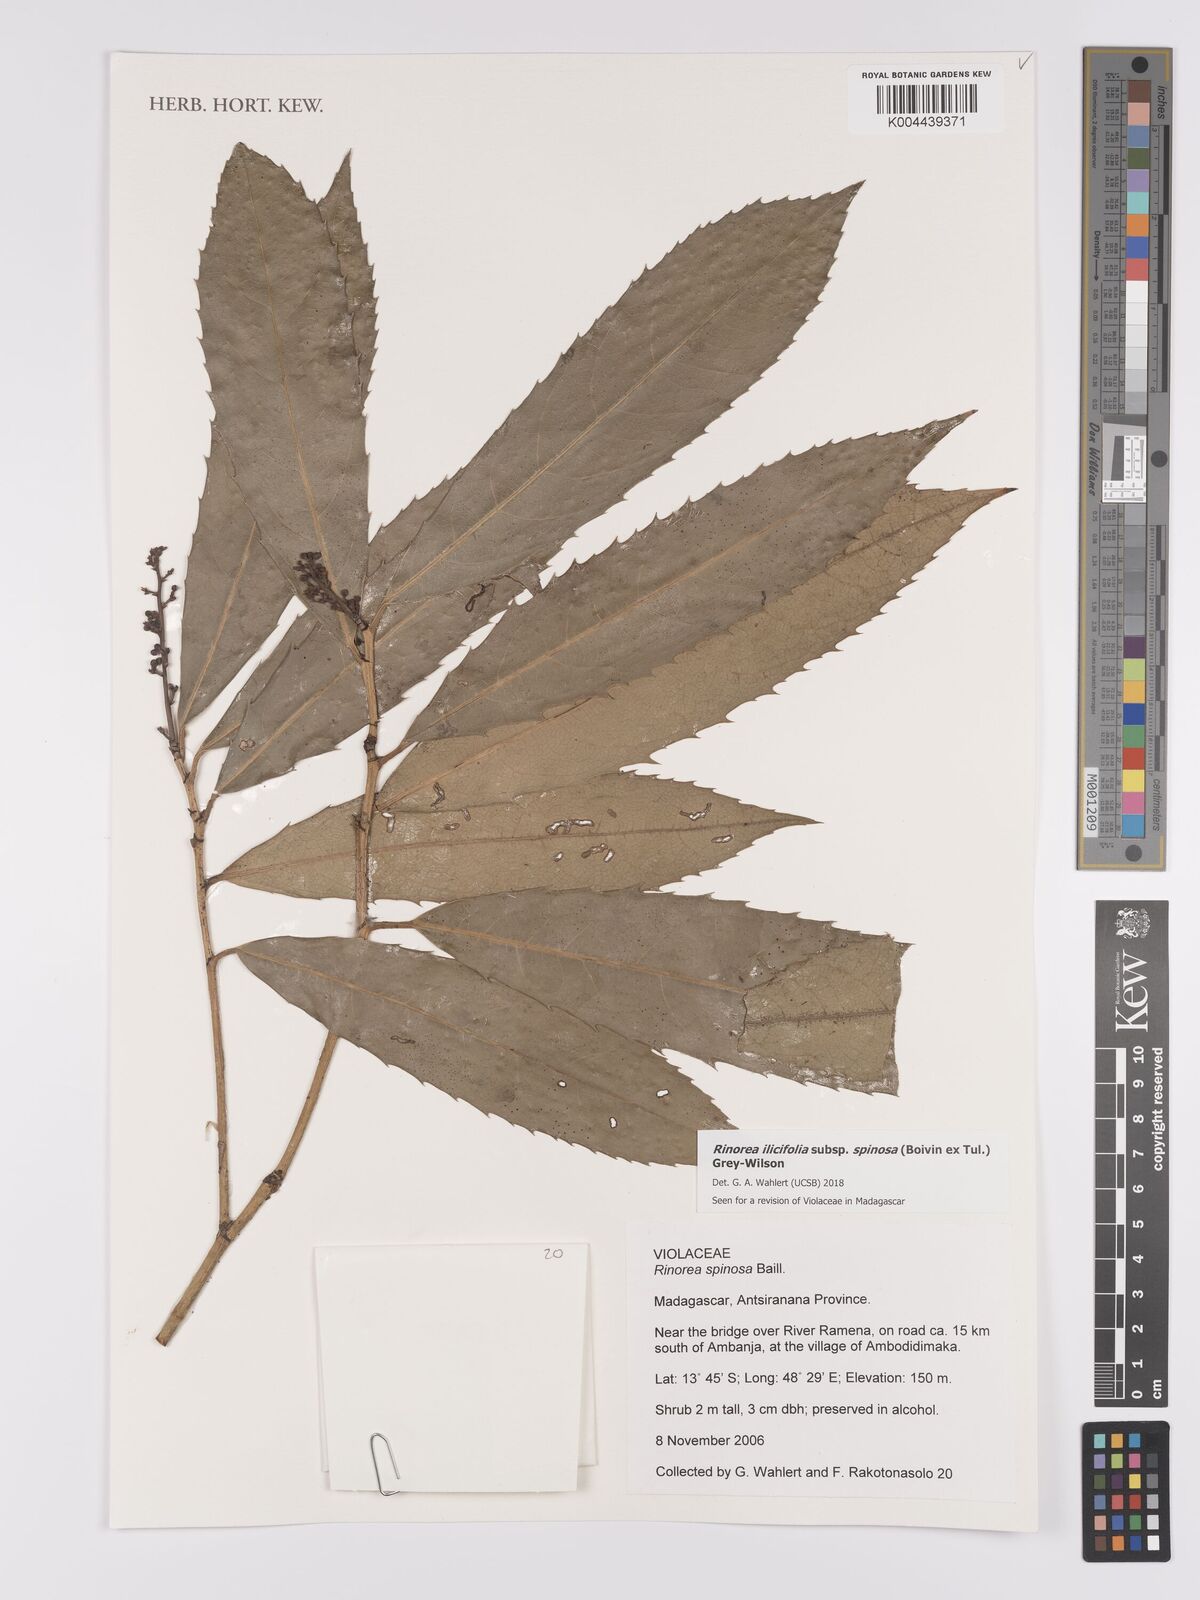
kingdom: Plantae
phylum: Tracheophyta
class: Magnoliopsida
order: Malpighiales
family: Violaceae
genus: Rinorea
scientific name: Rinorea spinosa
